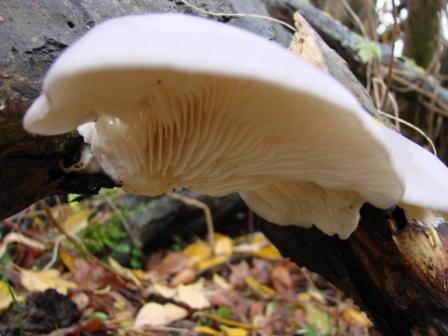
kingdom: Fungi
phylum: Basidiomycota
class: Agaricomycetes
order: Agaricales
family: Pleurotaceae
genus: Pleurotus
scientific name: Pleurotus ostreatus
